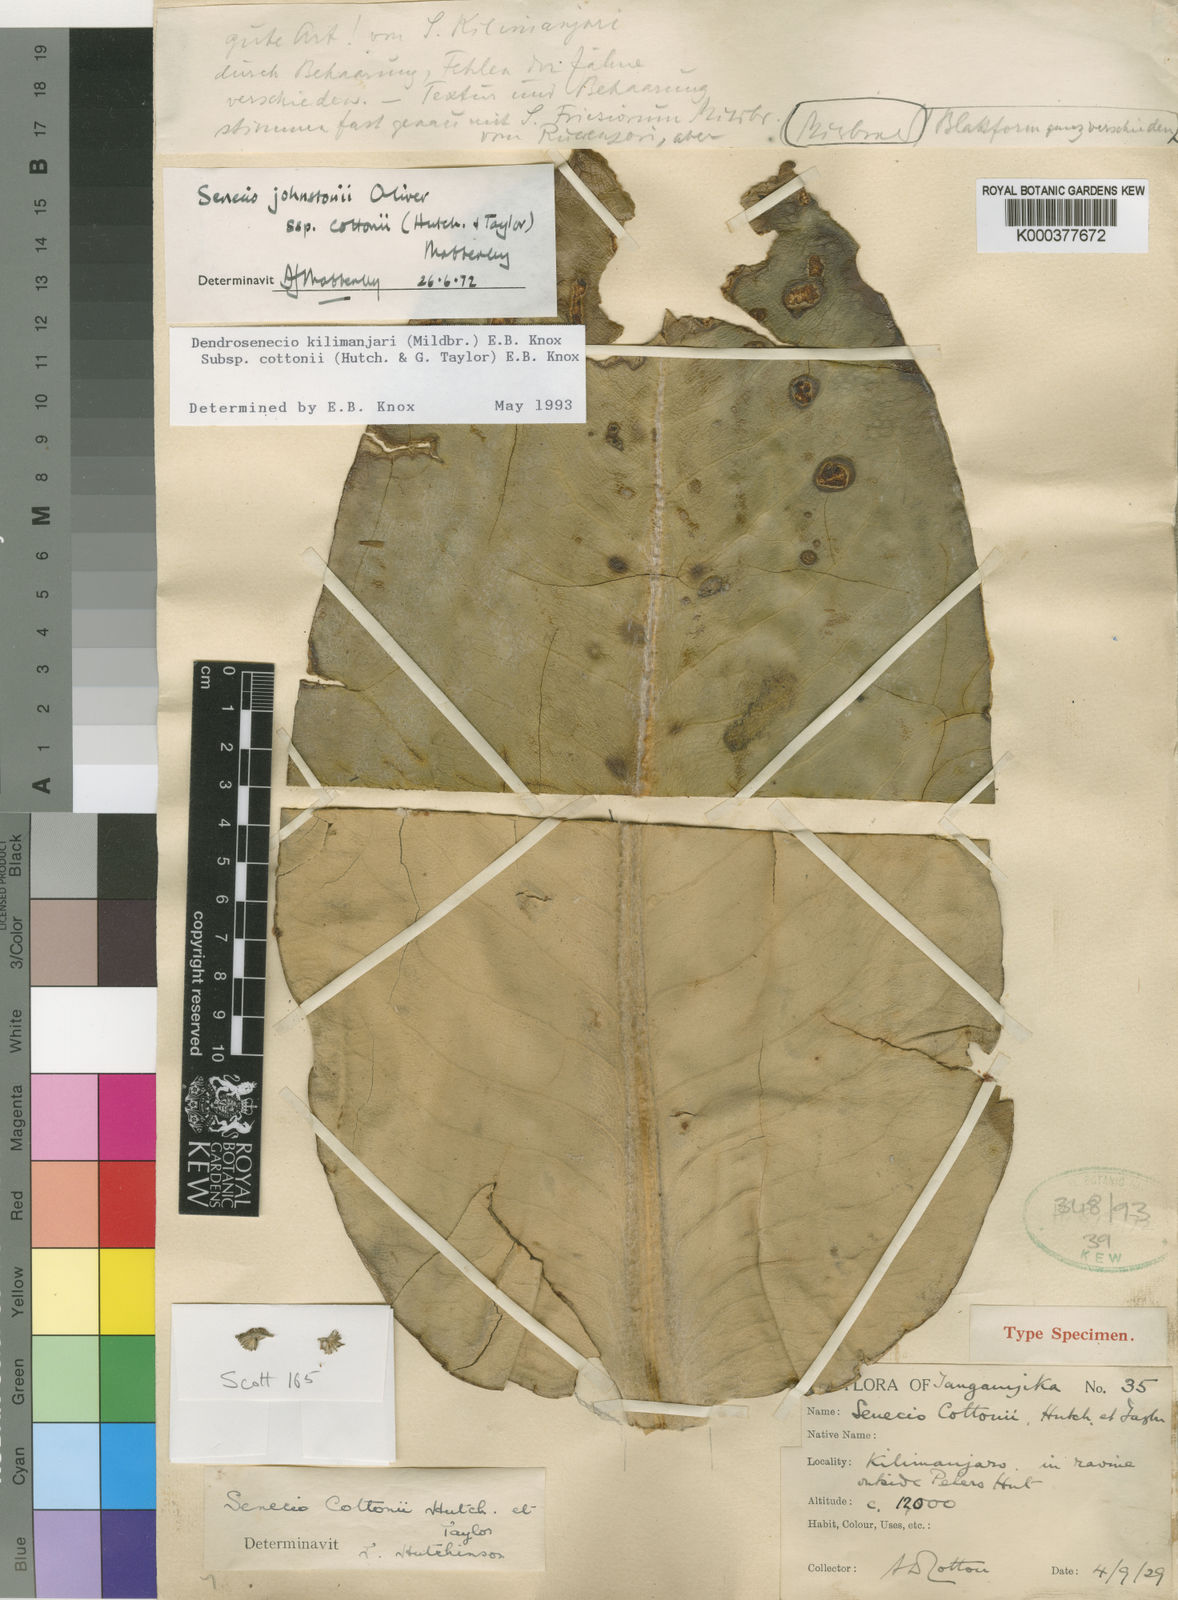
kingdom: Plantae
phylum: Tracheophyta
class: Magnoliopsida
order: Asterales
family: Asteraceae
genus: Dendrosenecio
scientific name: Dendrosenecio kilimanjari
